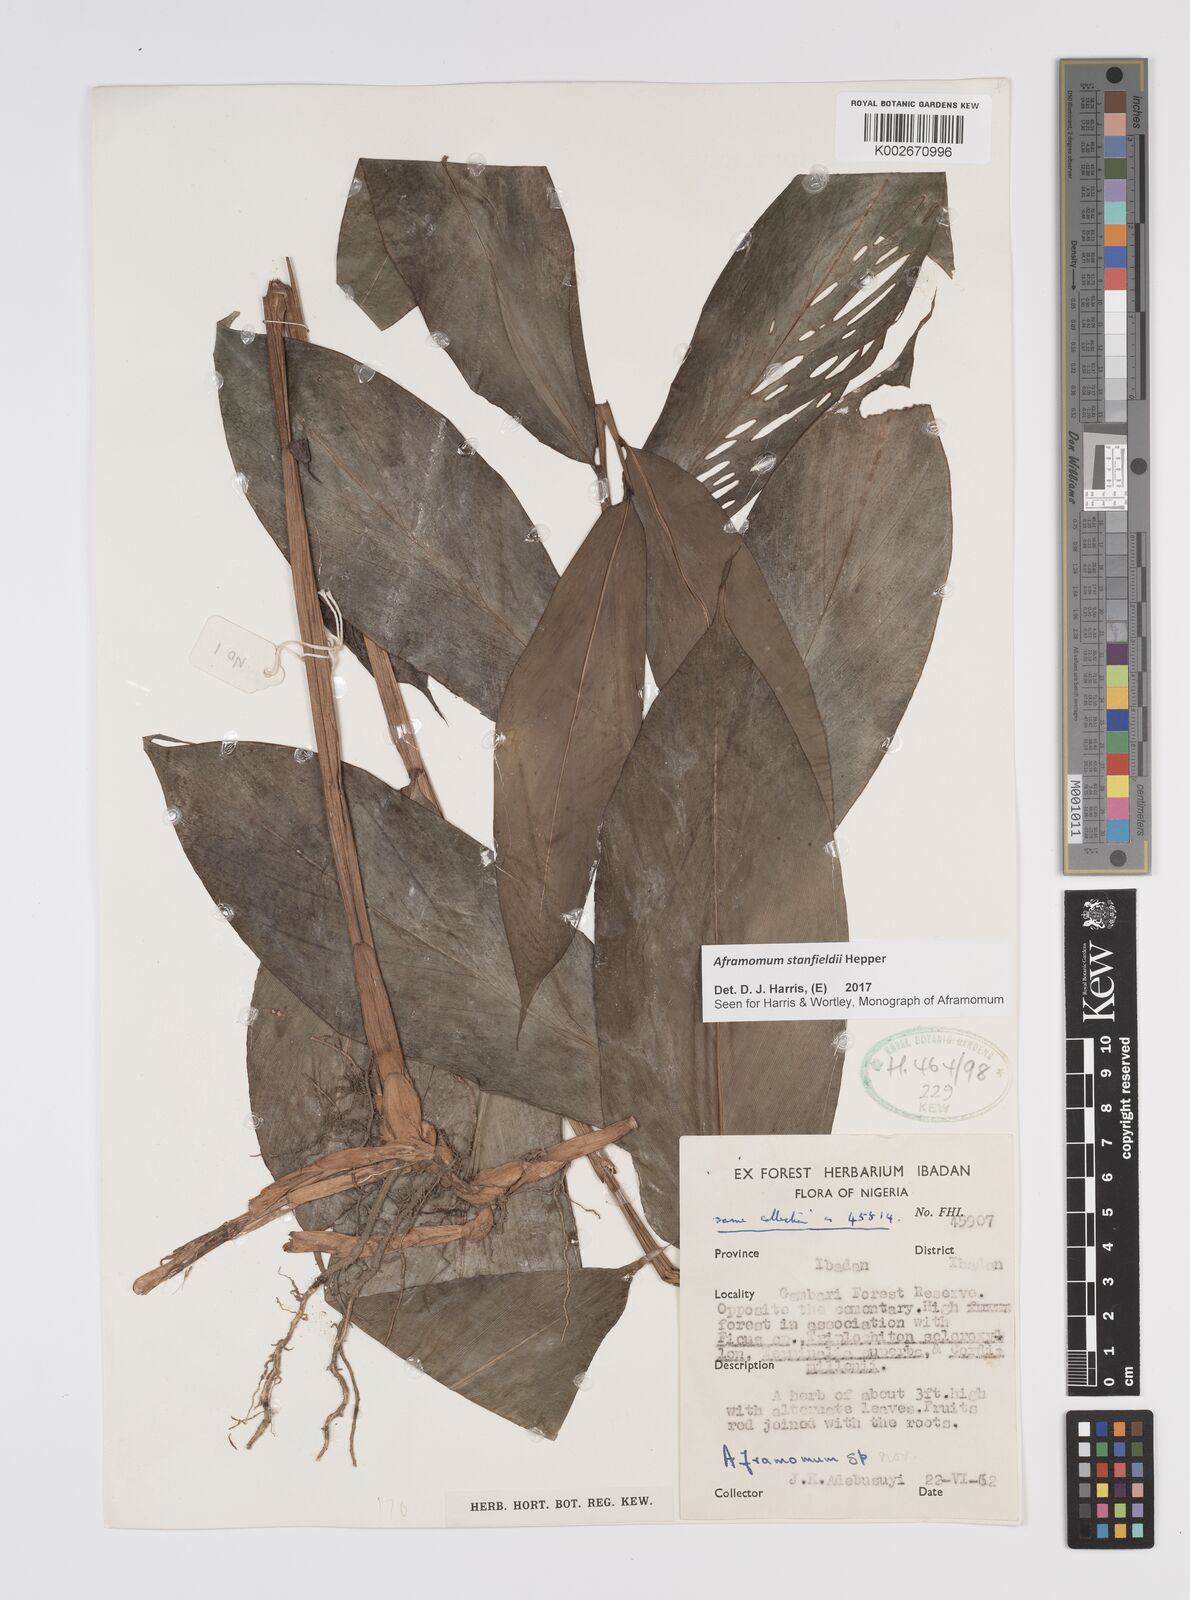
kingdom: Plantae
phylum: Tracheophyta
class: Liliopsida
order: Zingiberales
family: Zingiberaceae
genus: Aframomum
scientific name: Aframomum stanfieldii
